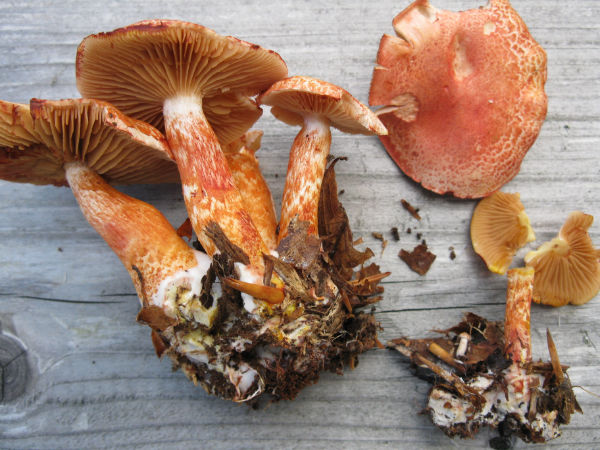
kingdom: Fungi
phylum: Basidiomycota
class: Agaricomycetes
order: Agaricales
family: Cortinariaceae
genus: Cortinarius
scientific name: Cortinarius bolaris
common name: cinnoberskællet slørhat
